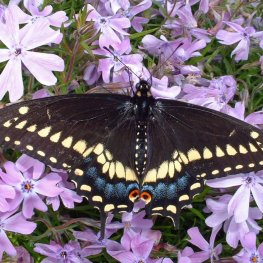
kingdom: Animalia
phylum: Arthropoda
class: Insecta
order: Lepidoptera
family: Papilionidae
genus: Papilio
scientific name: Papilio polyxenes
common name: Black Swallowtail
